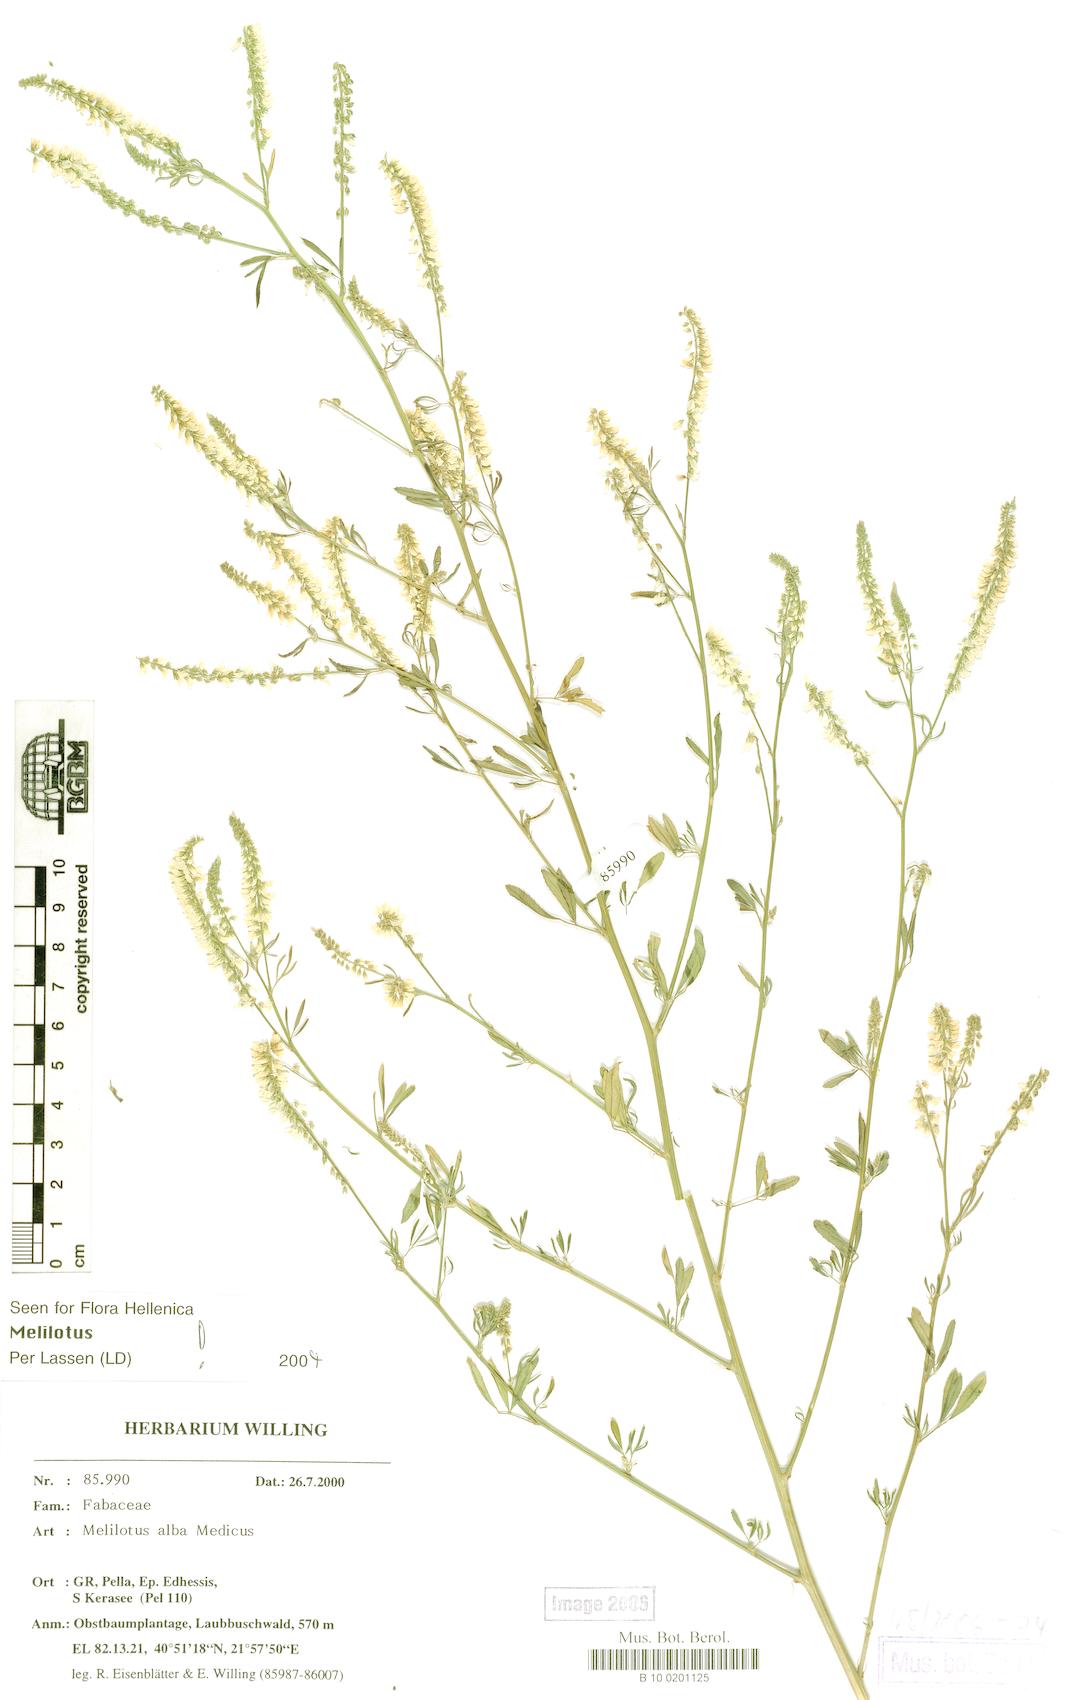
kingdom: Plantae
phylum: Tracheophyta
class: Magnoliopsida
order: Fabales
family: Fabaceae
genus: Melilotus
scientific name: Melilotus albus
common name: White melilot
